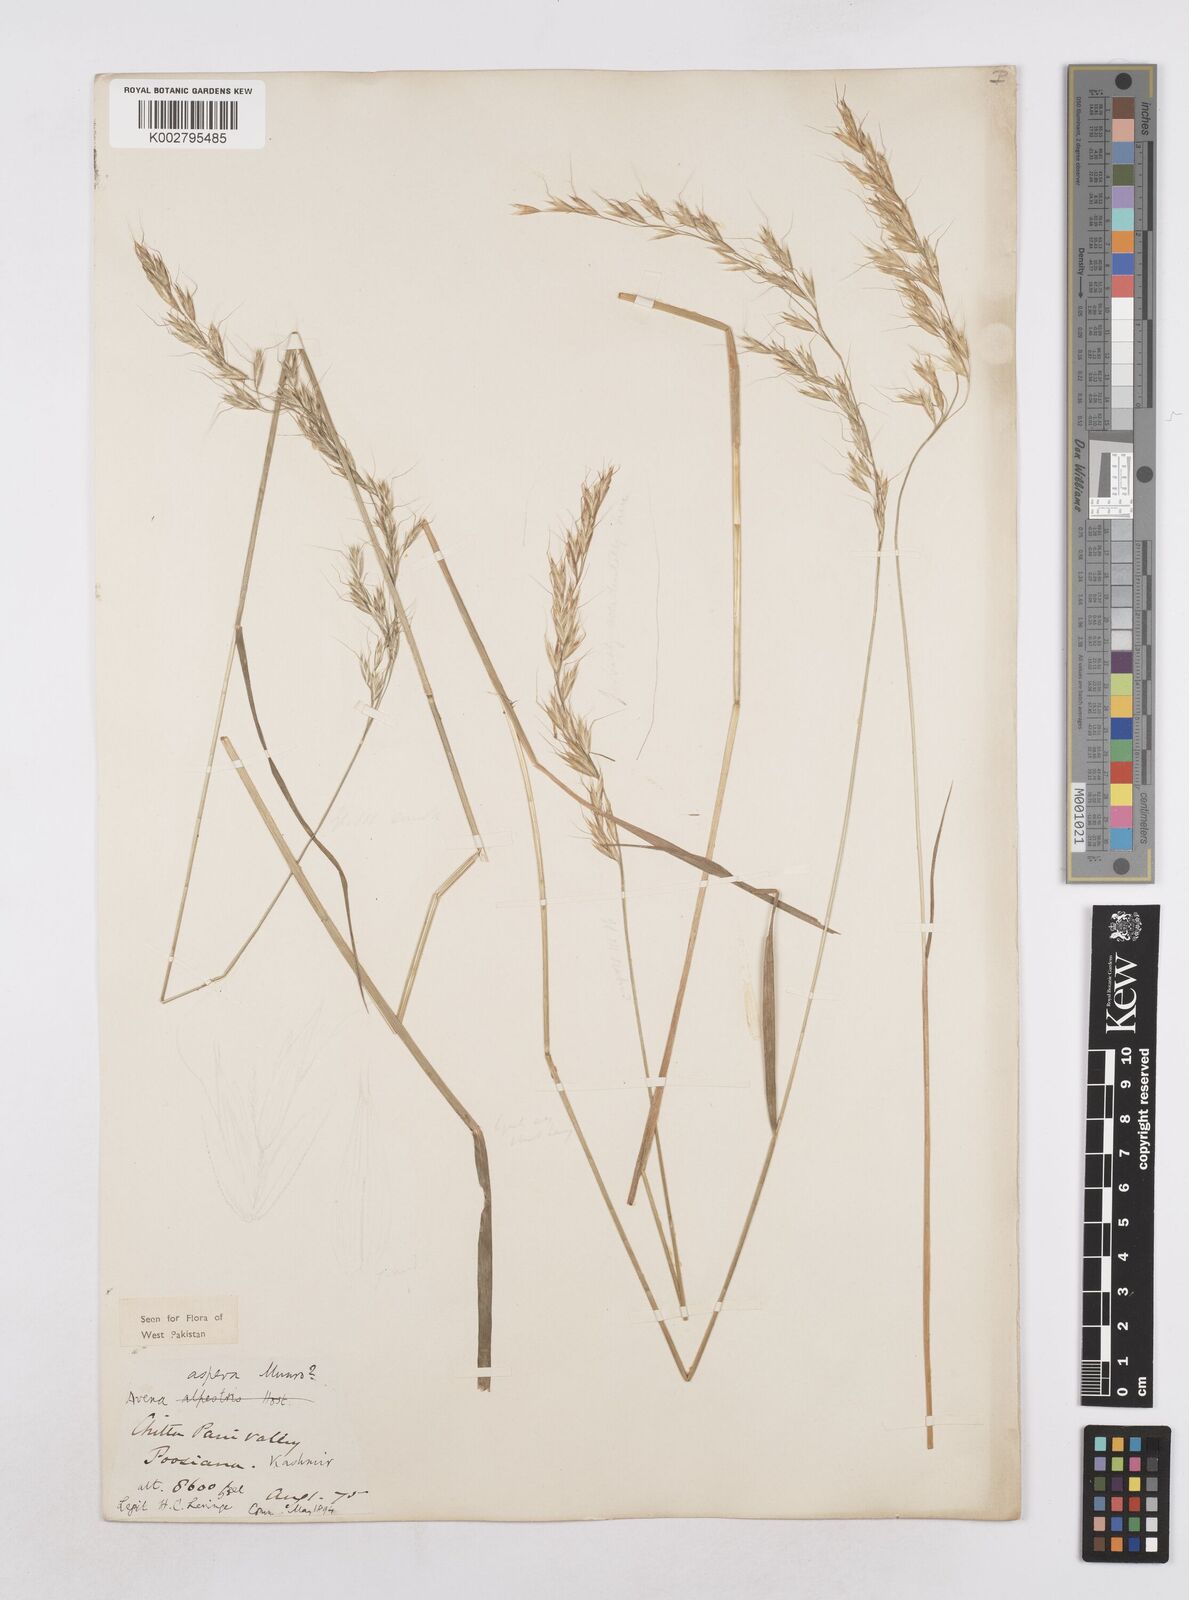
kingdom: Plantae
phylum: Tracheophyta
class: Liliopsida
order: Poales
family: Poaceae
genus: Trisetopsis
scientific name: Trisetopsis junghuhnii
